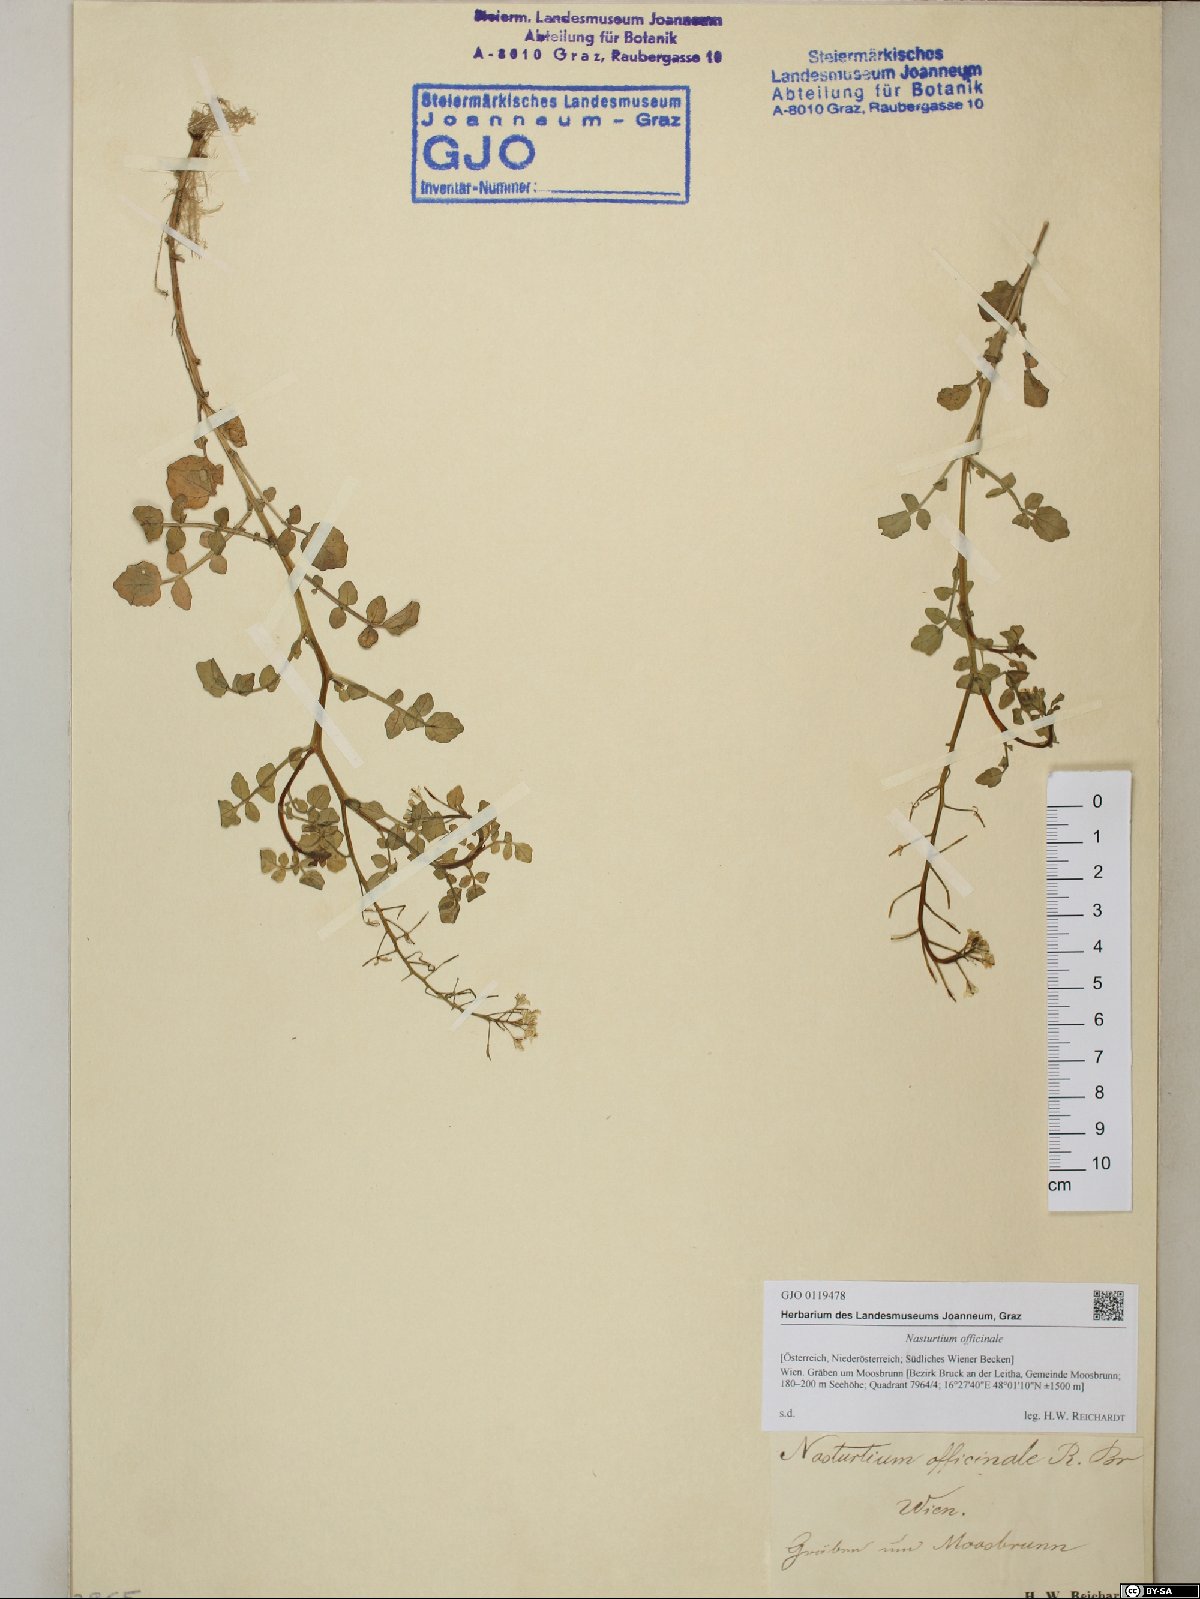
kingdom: Plantae
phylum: Tracheophyta
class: Magnoliopsida
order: Brassicales
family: Brassicaceae
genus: Nasturtium
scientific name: Nasturtium officinale
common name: Watercress
